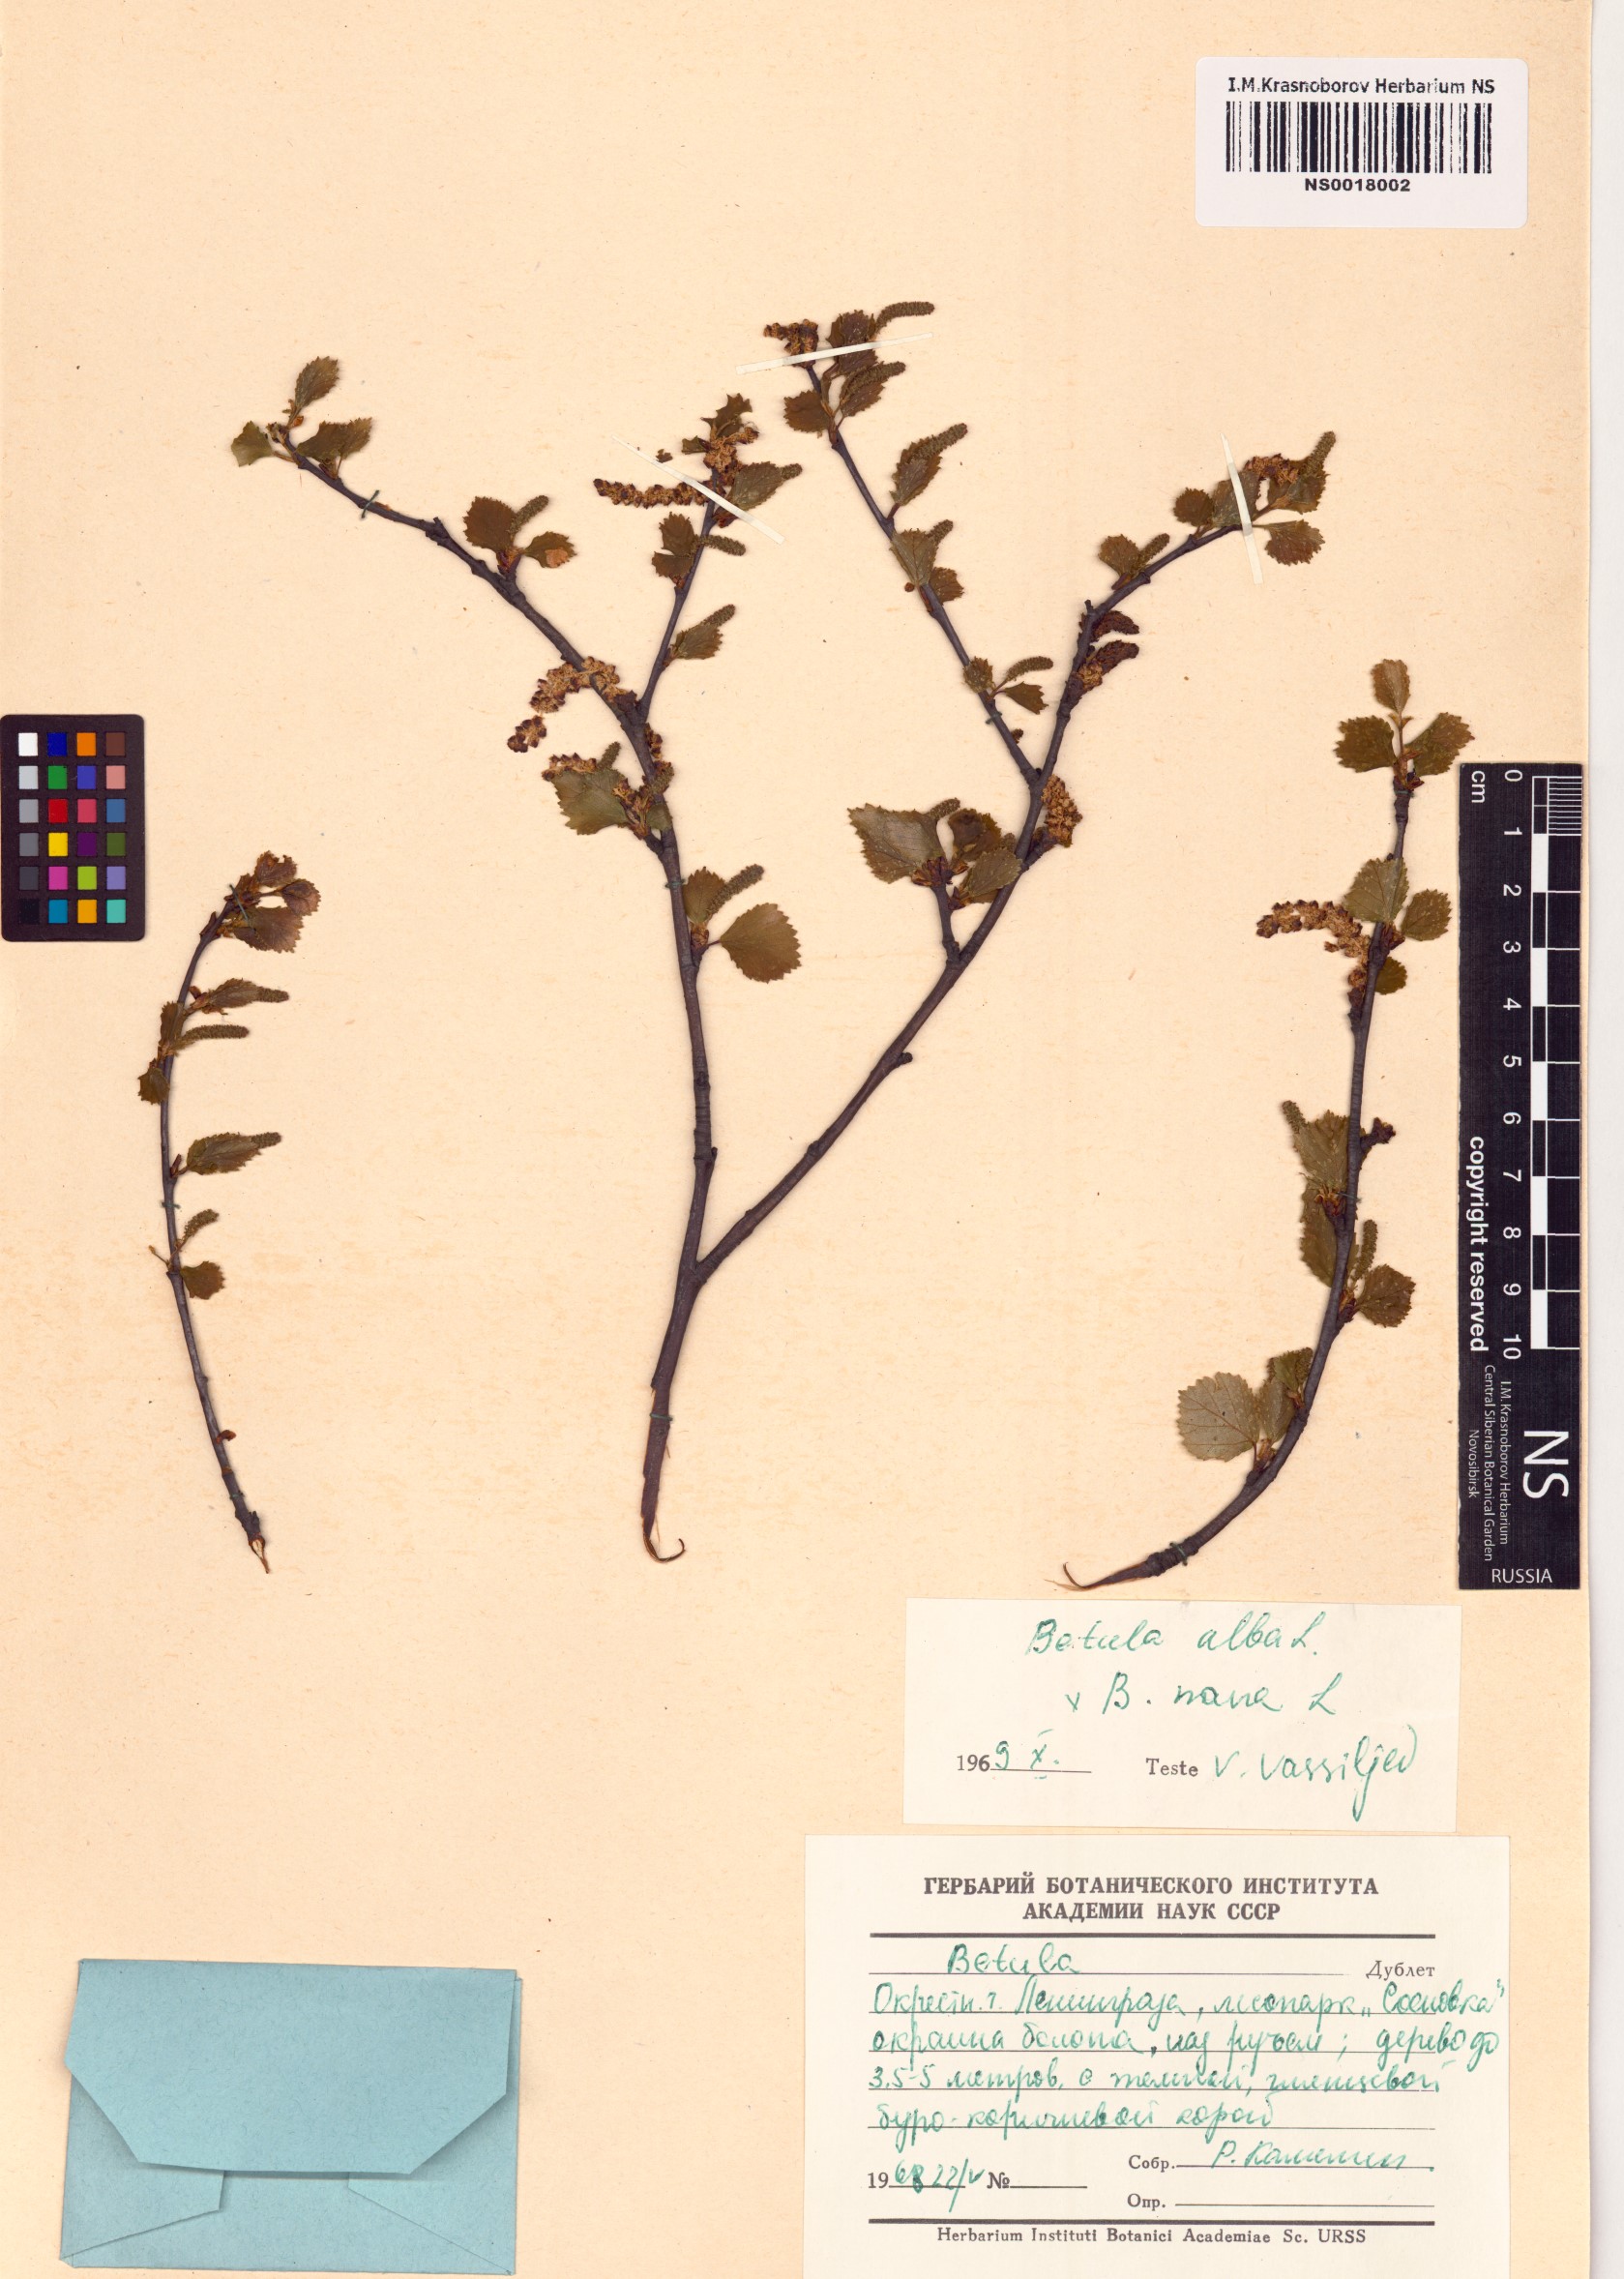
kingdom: Plantae
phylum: Tracheophyta
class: Magnoliopsida
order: Fagales
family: Betulaceae
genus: Betula
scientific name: Betula pubescens
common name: Downy birch
